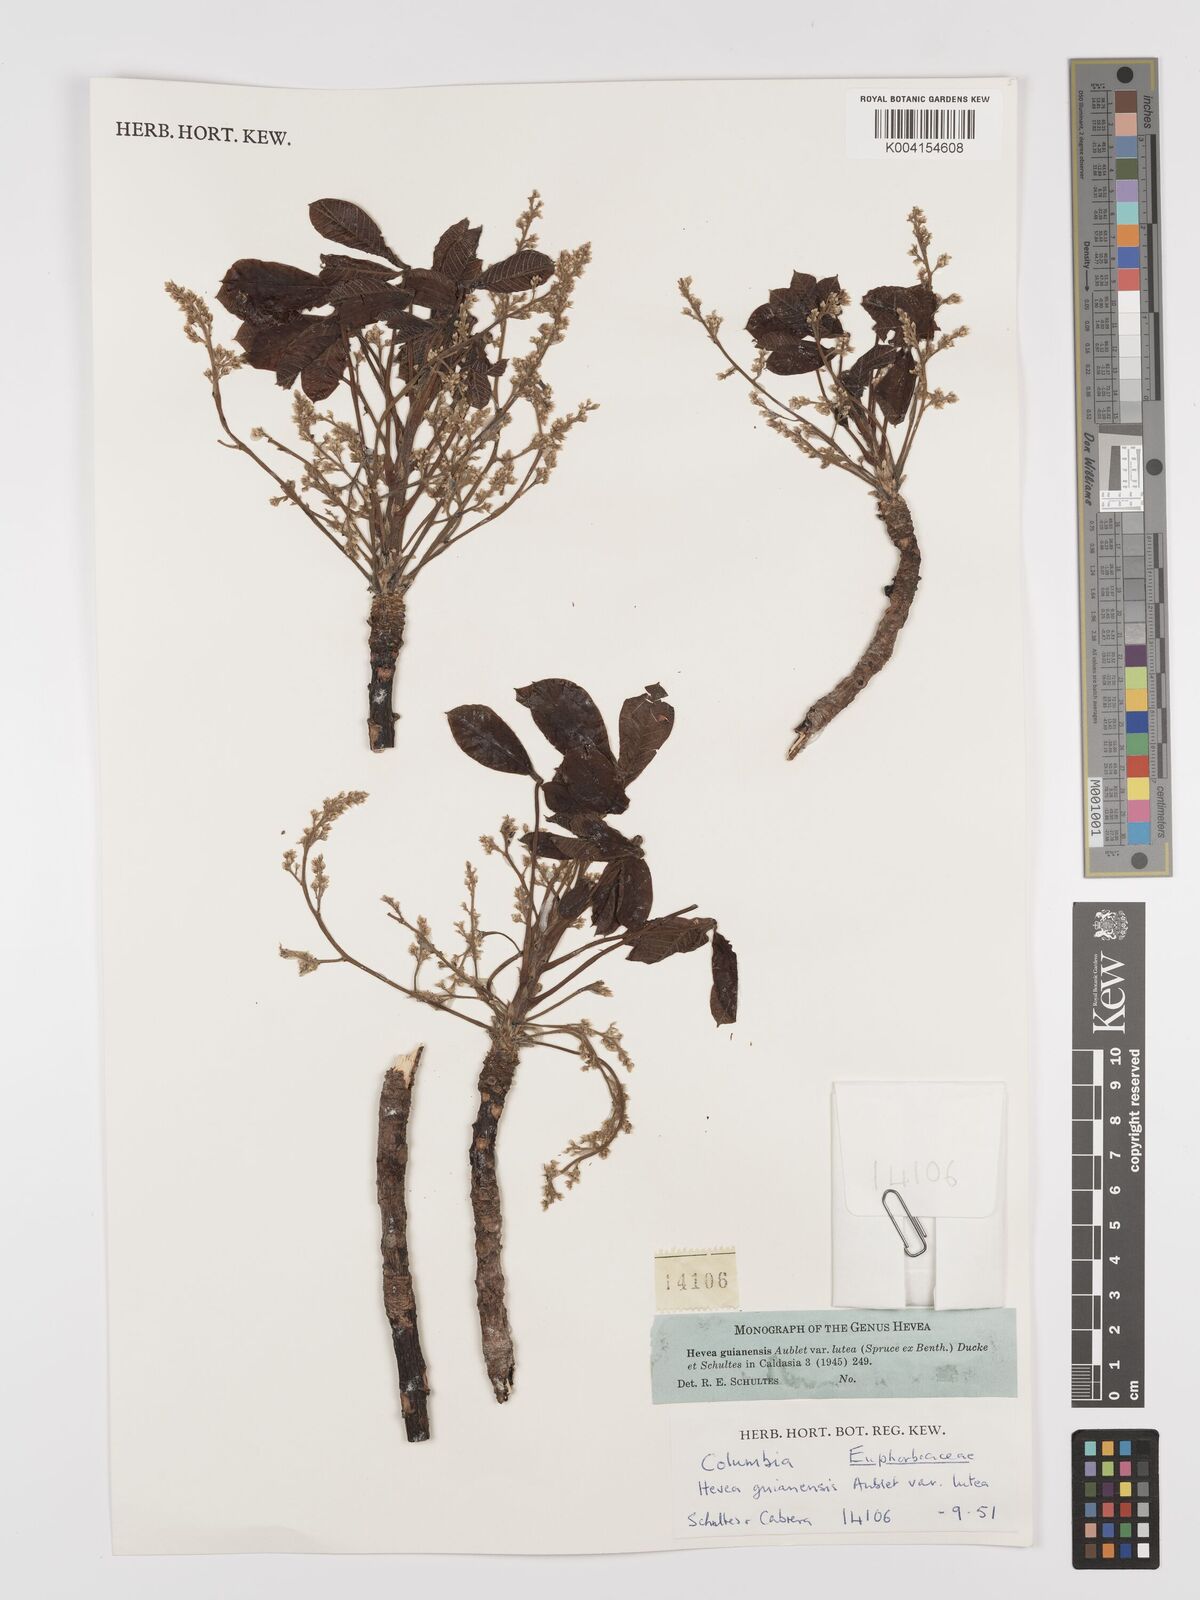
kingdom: Plantae
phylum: Tracheophyta
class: Magnoliopsida
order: Malpighiales
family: Euphorbiaceae
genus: Hevea
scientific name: Hevea guianensis
